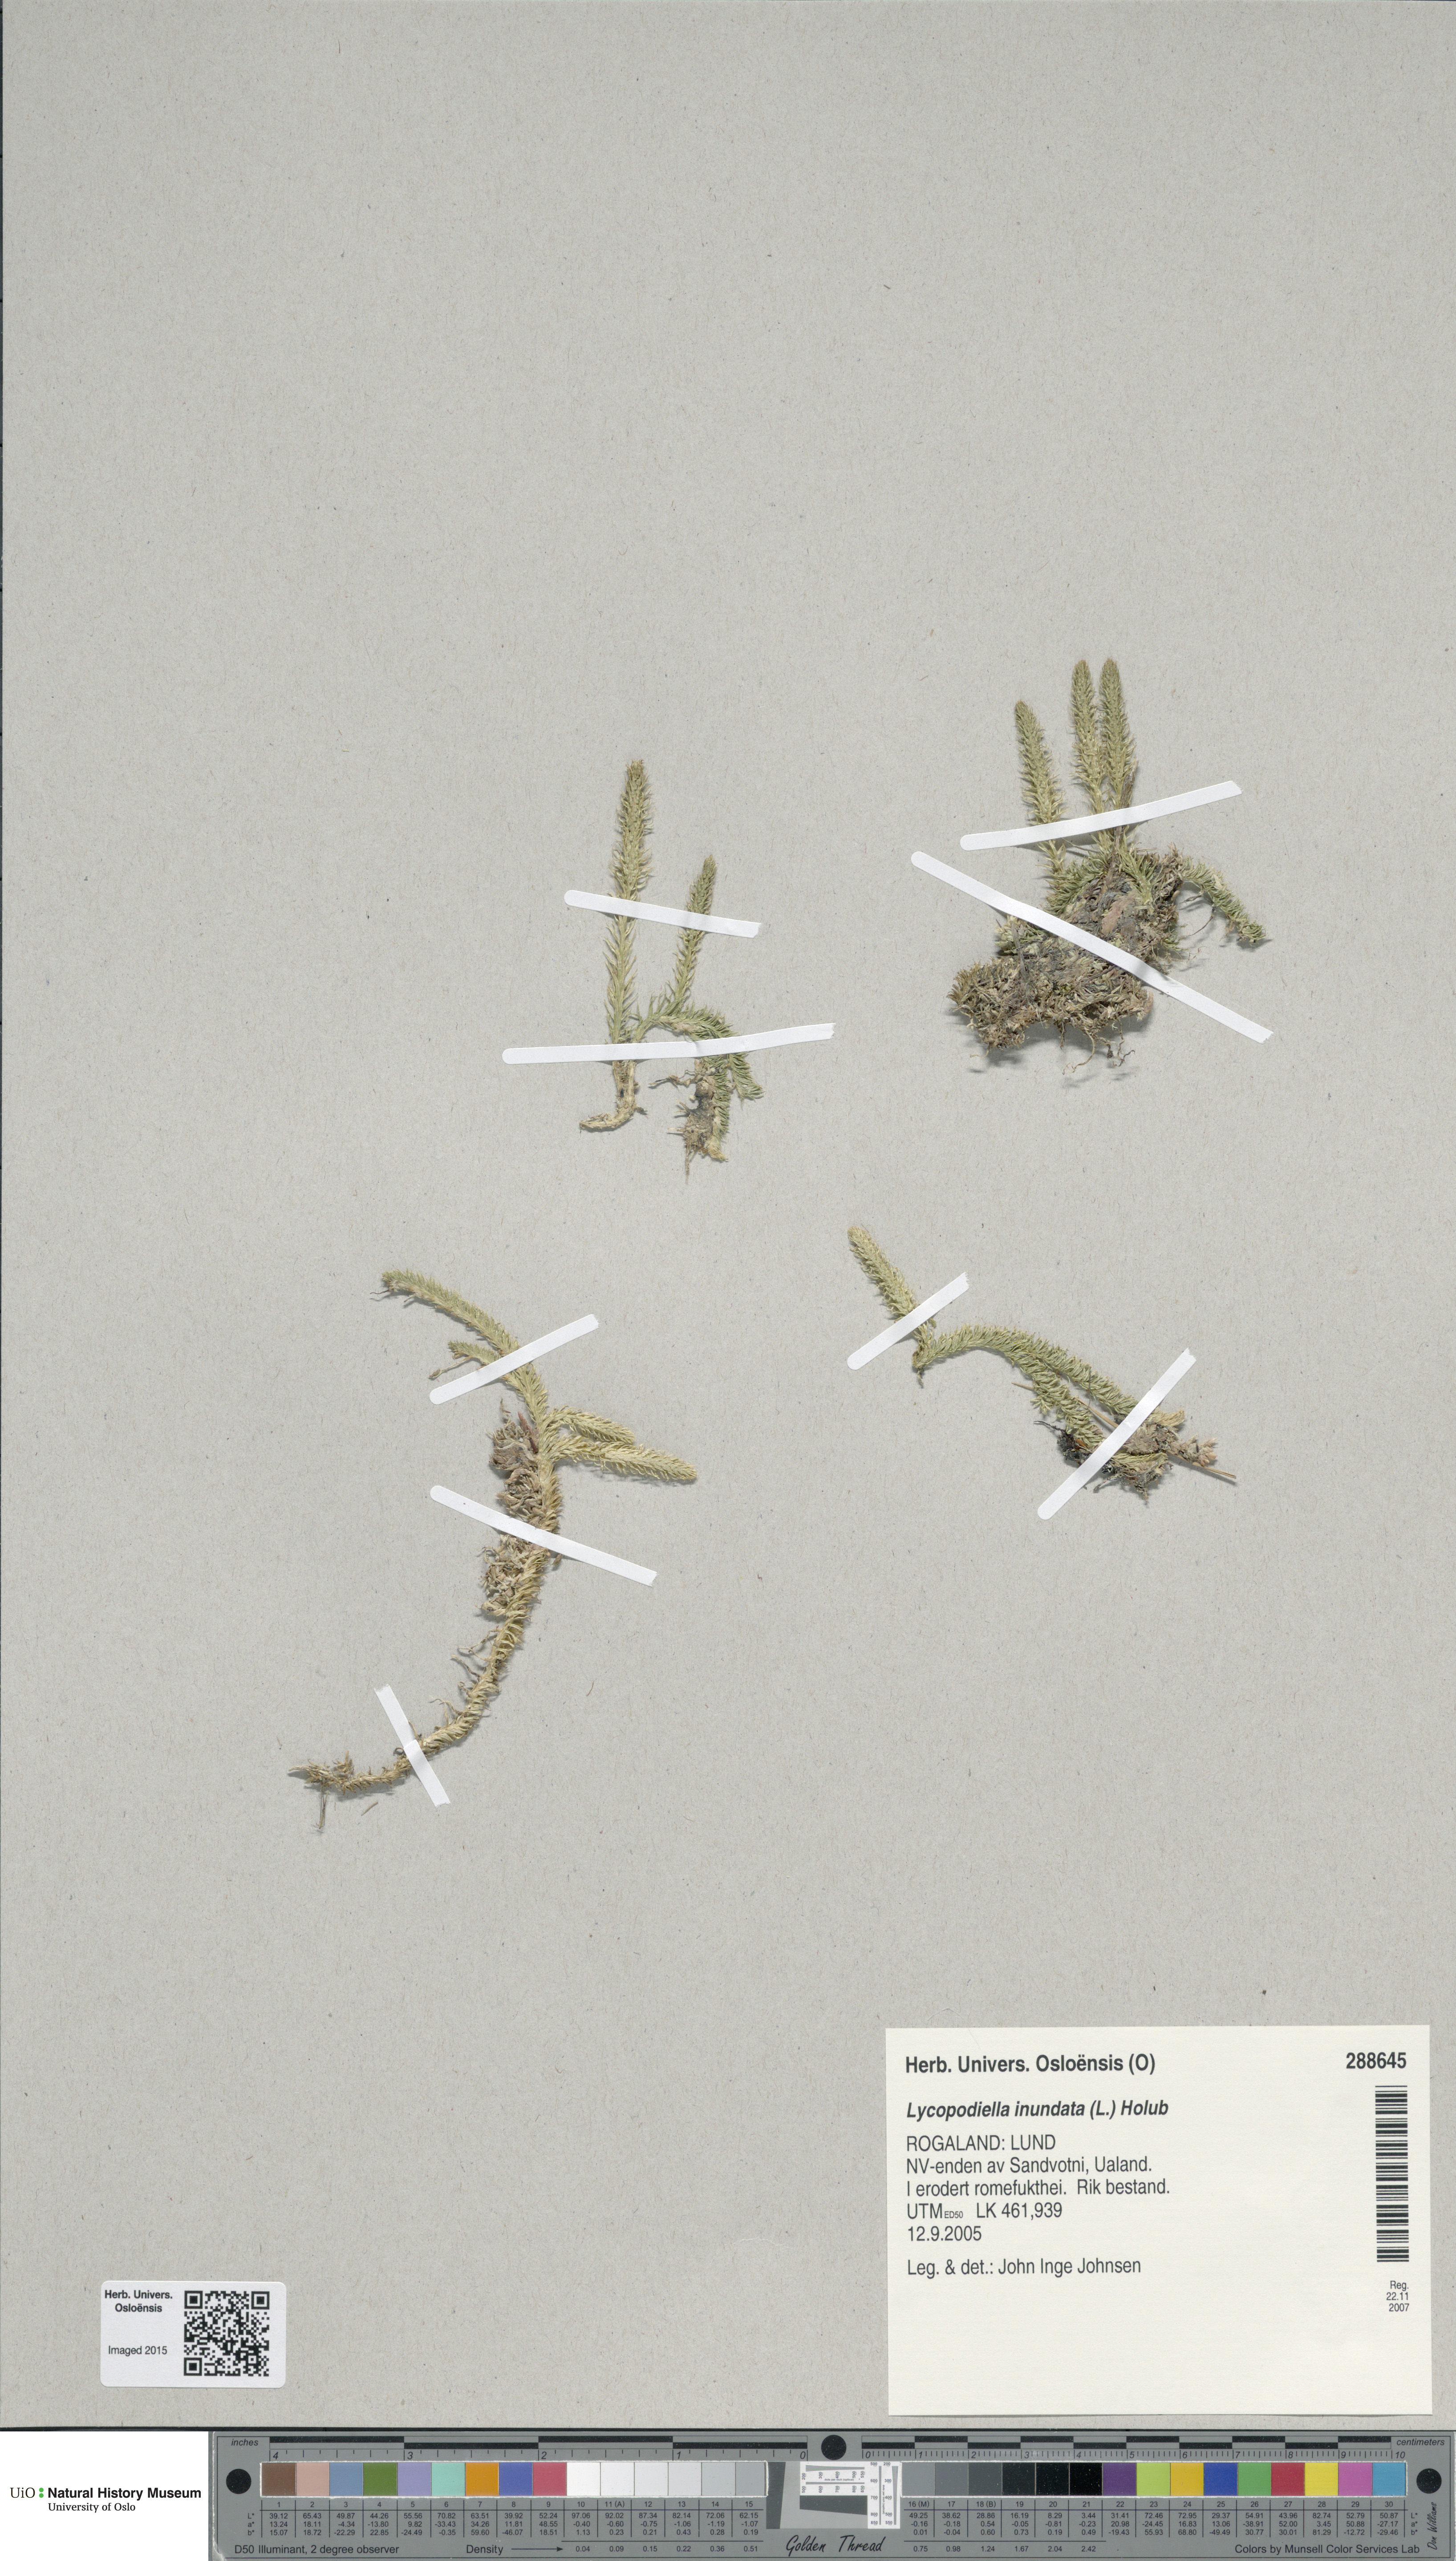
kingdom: Plantae
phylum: Tracheophyta
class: Lycopodiopsida
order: Lycopodiales
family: Lycopodiaceae
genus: Lycopodiella
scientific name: Lycopodiella inundata
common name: Marsh clubmoss
